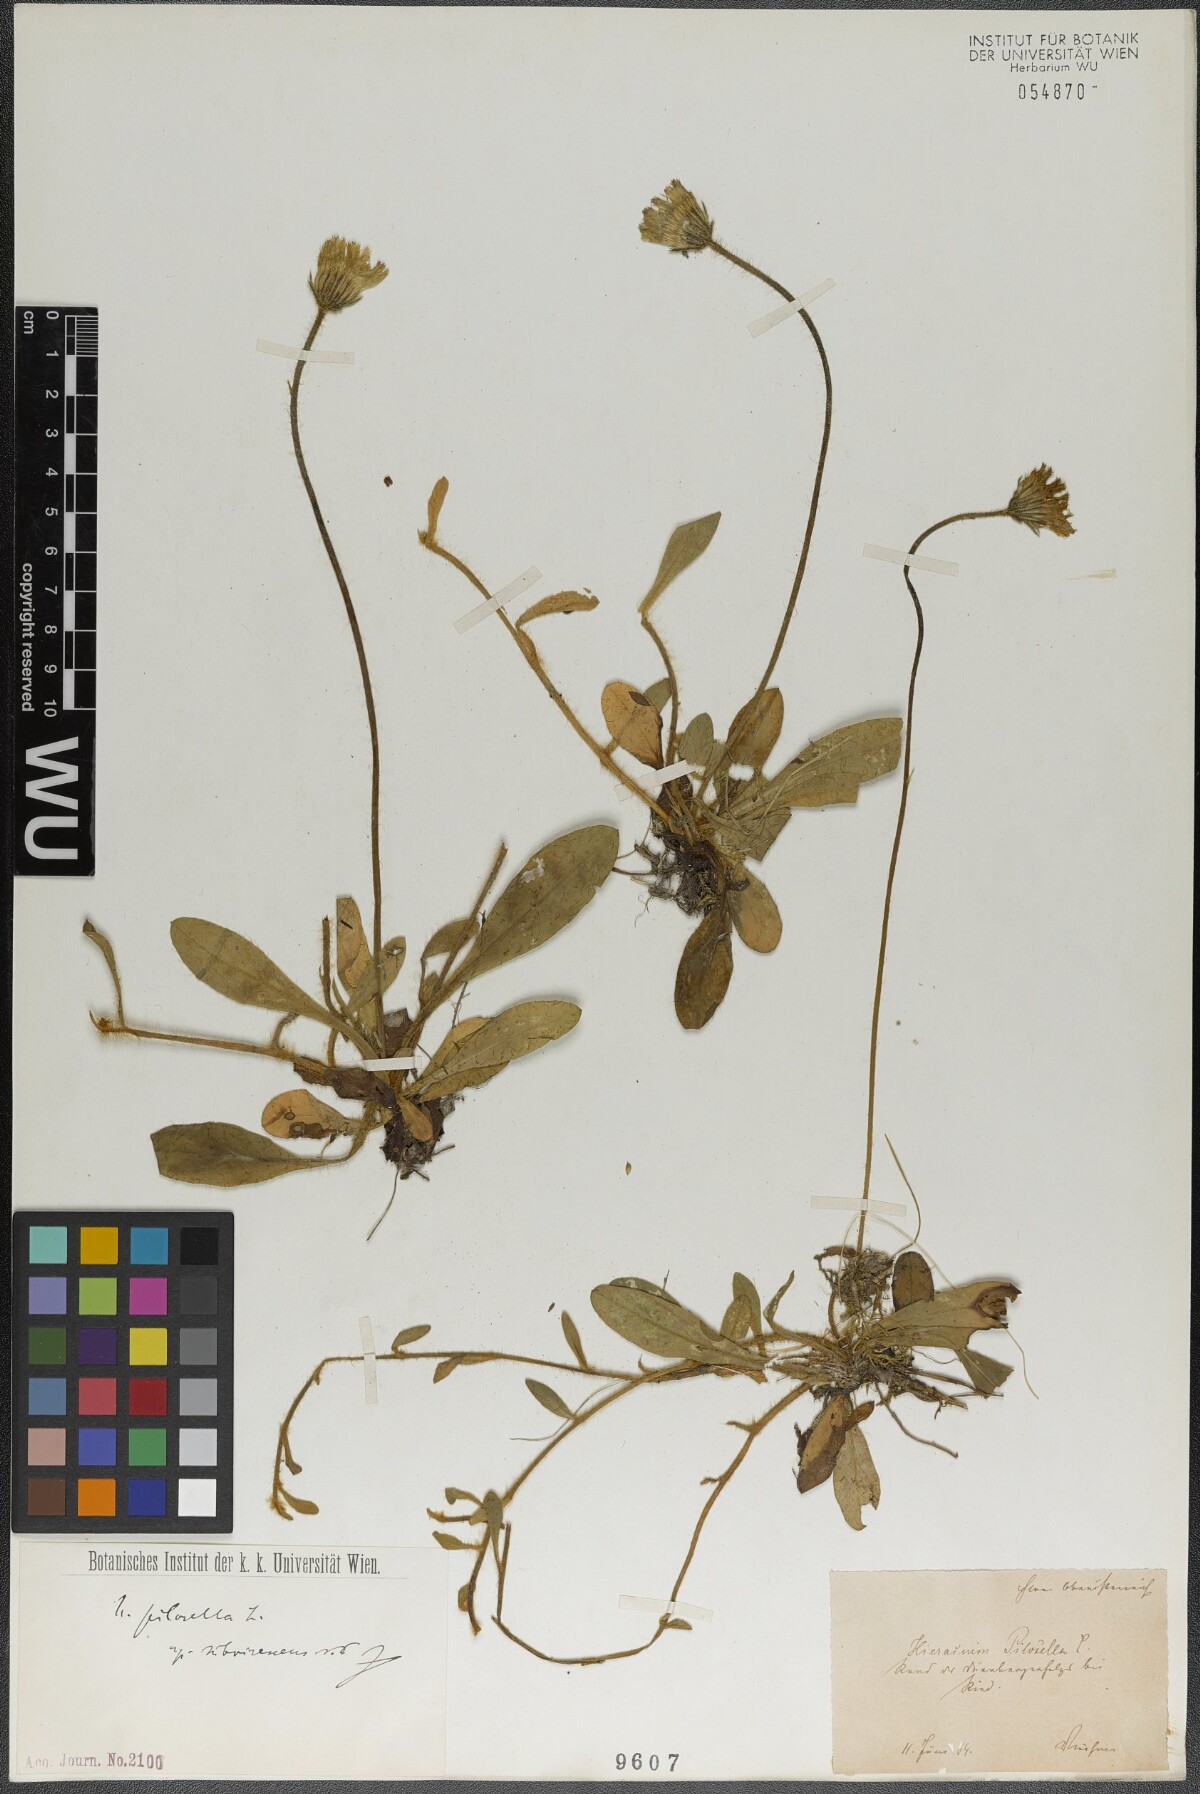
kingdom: Plantae
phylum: Tracheophyta
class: Magnoliopsida
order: Asterales
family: Asteraceae
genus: Pilosella
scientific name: Pilosella officinarum
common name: Mouse-ear hawkweed
